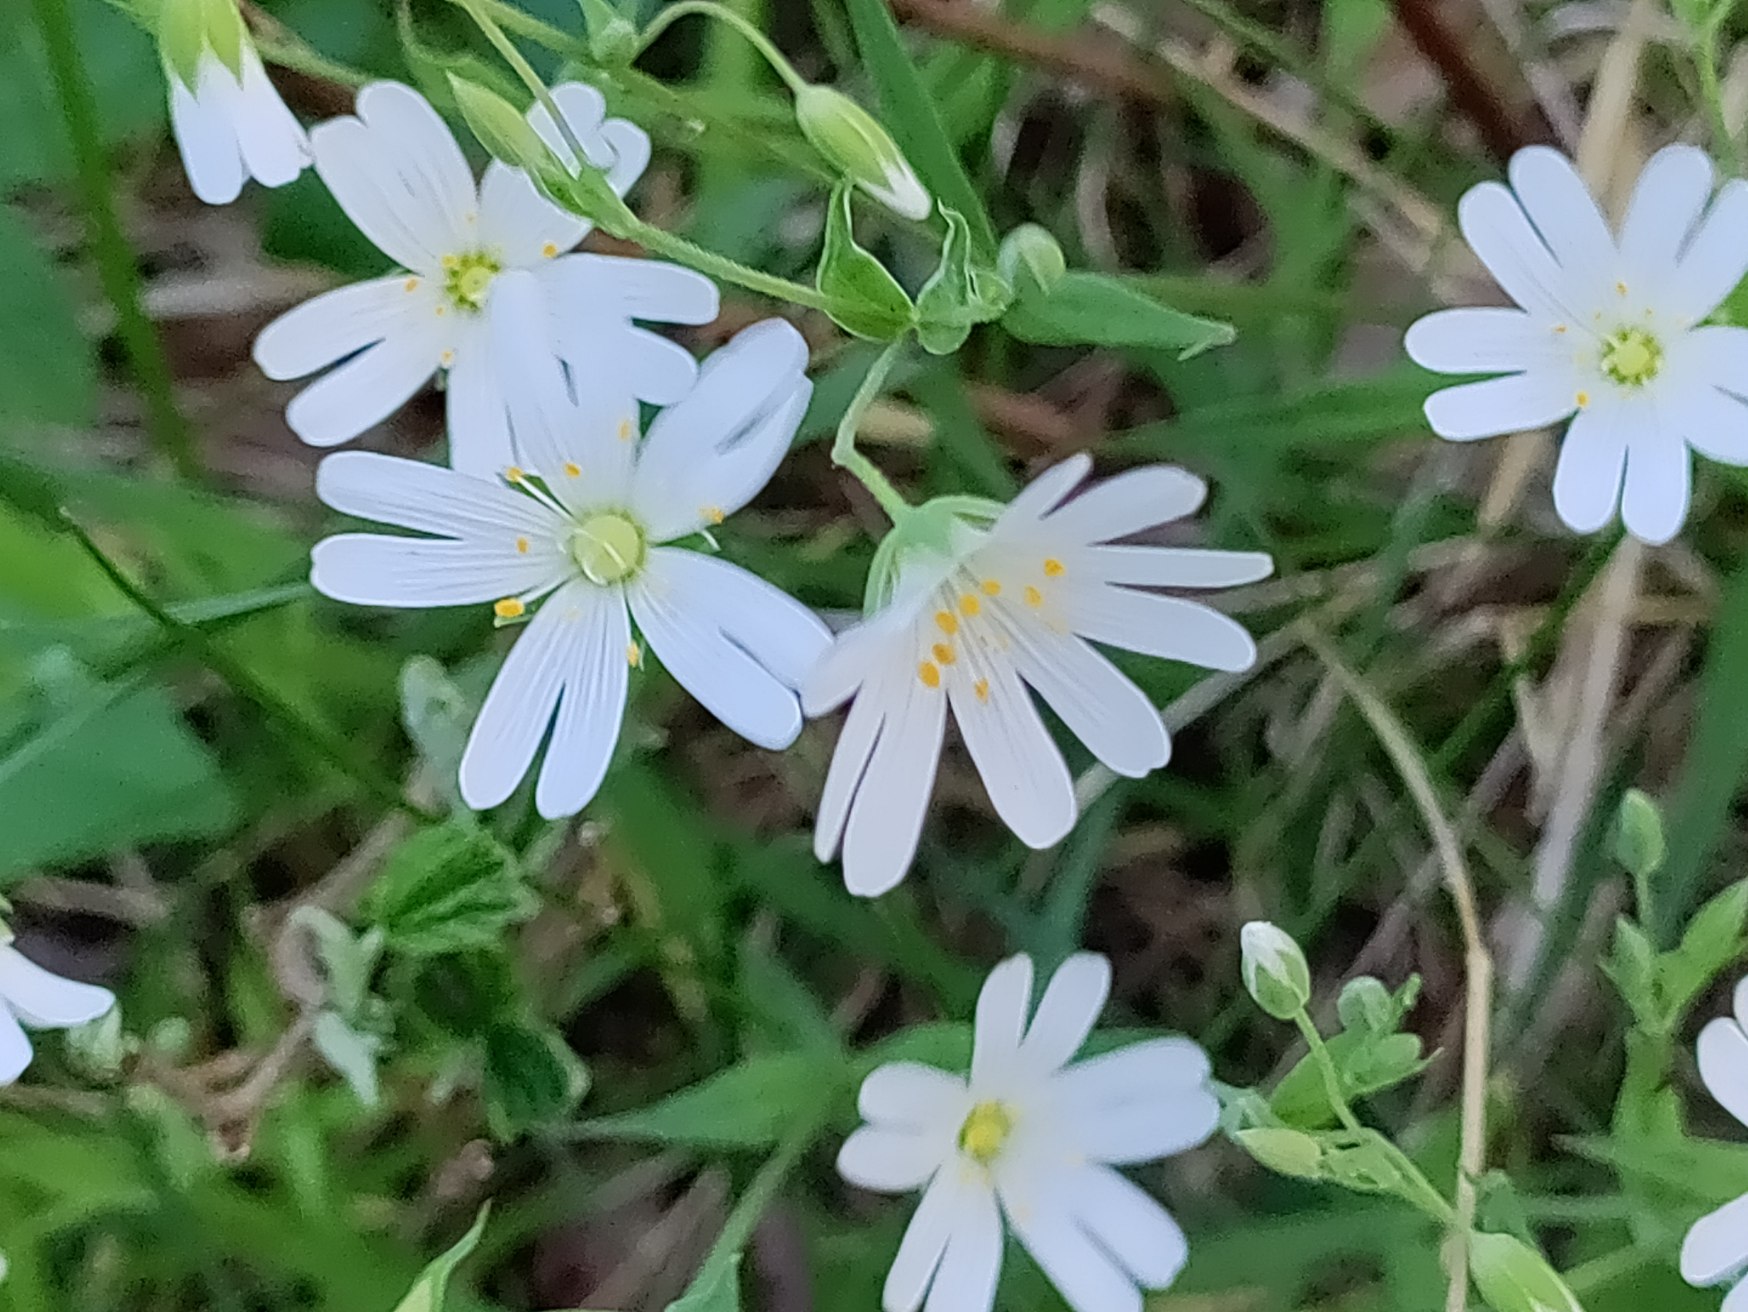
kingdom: Plantae
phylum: Tracheophyta
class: Magnoliopsida
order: Caryophyllales
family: Caryophyllaceae
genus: Rabelera
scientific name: Rabelera holostea
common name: Stor fladstjerne
